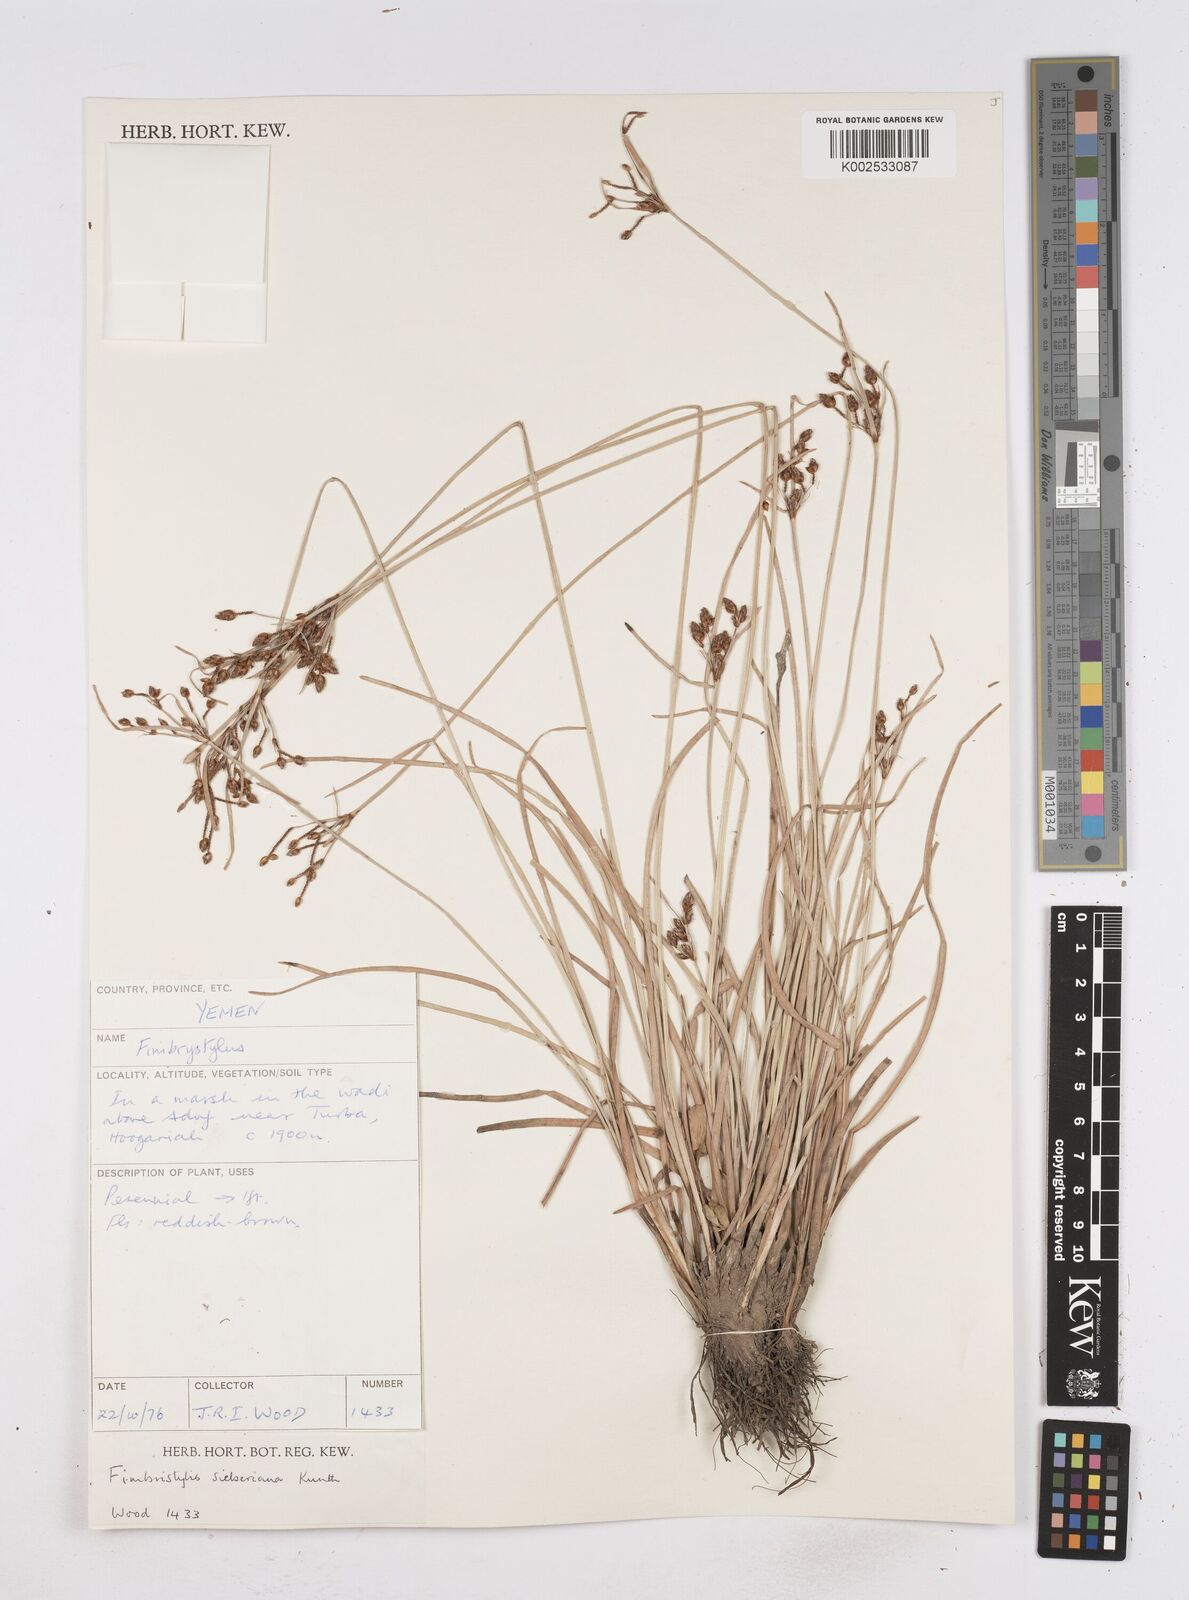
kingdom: Plantae
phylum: Tracheophyta
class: Liliopsida
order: Poales
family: Cyperaceae
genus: Fimbristylis
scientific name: Fimbristylis ferruginea
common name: West indian fimbry
